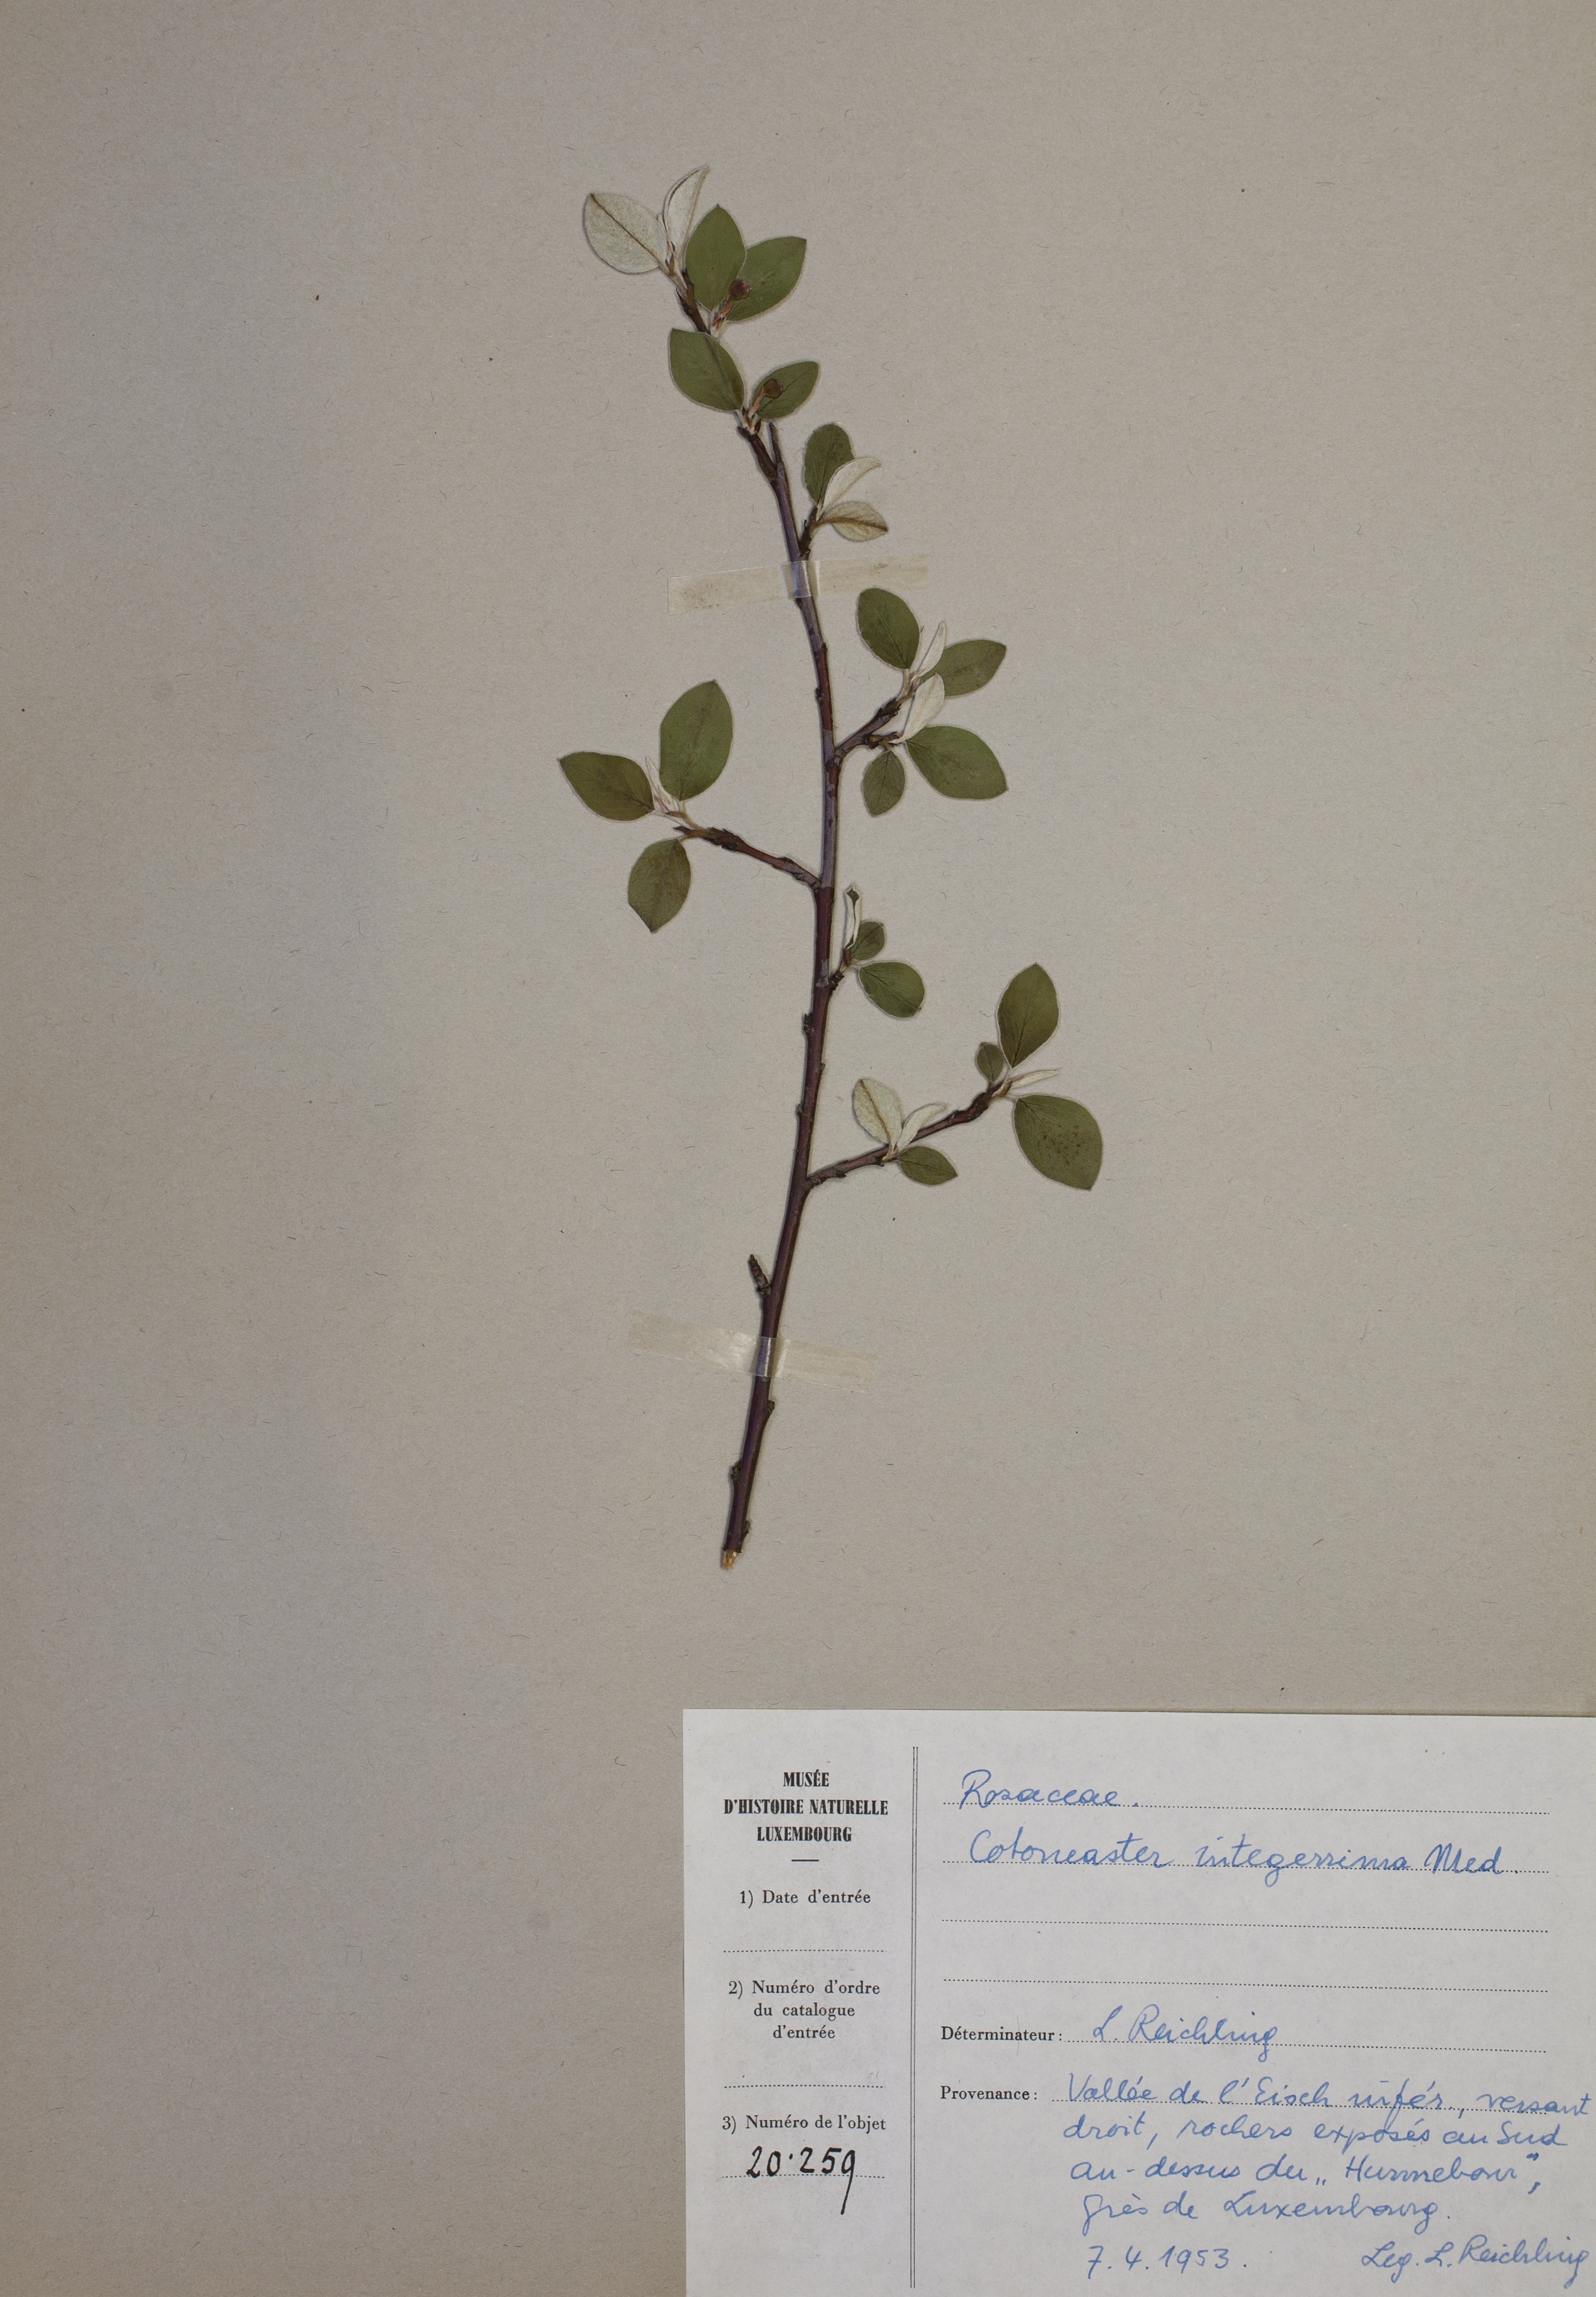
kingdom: Plantae
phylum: Tracheophyta
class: Magnoliopsida
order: Rosales
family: Rosaceae
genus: Cotoneaster
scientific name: Cotoneaster integerrimus
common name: Wild cotoneaster
